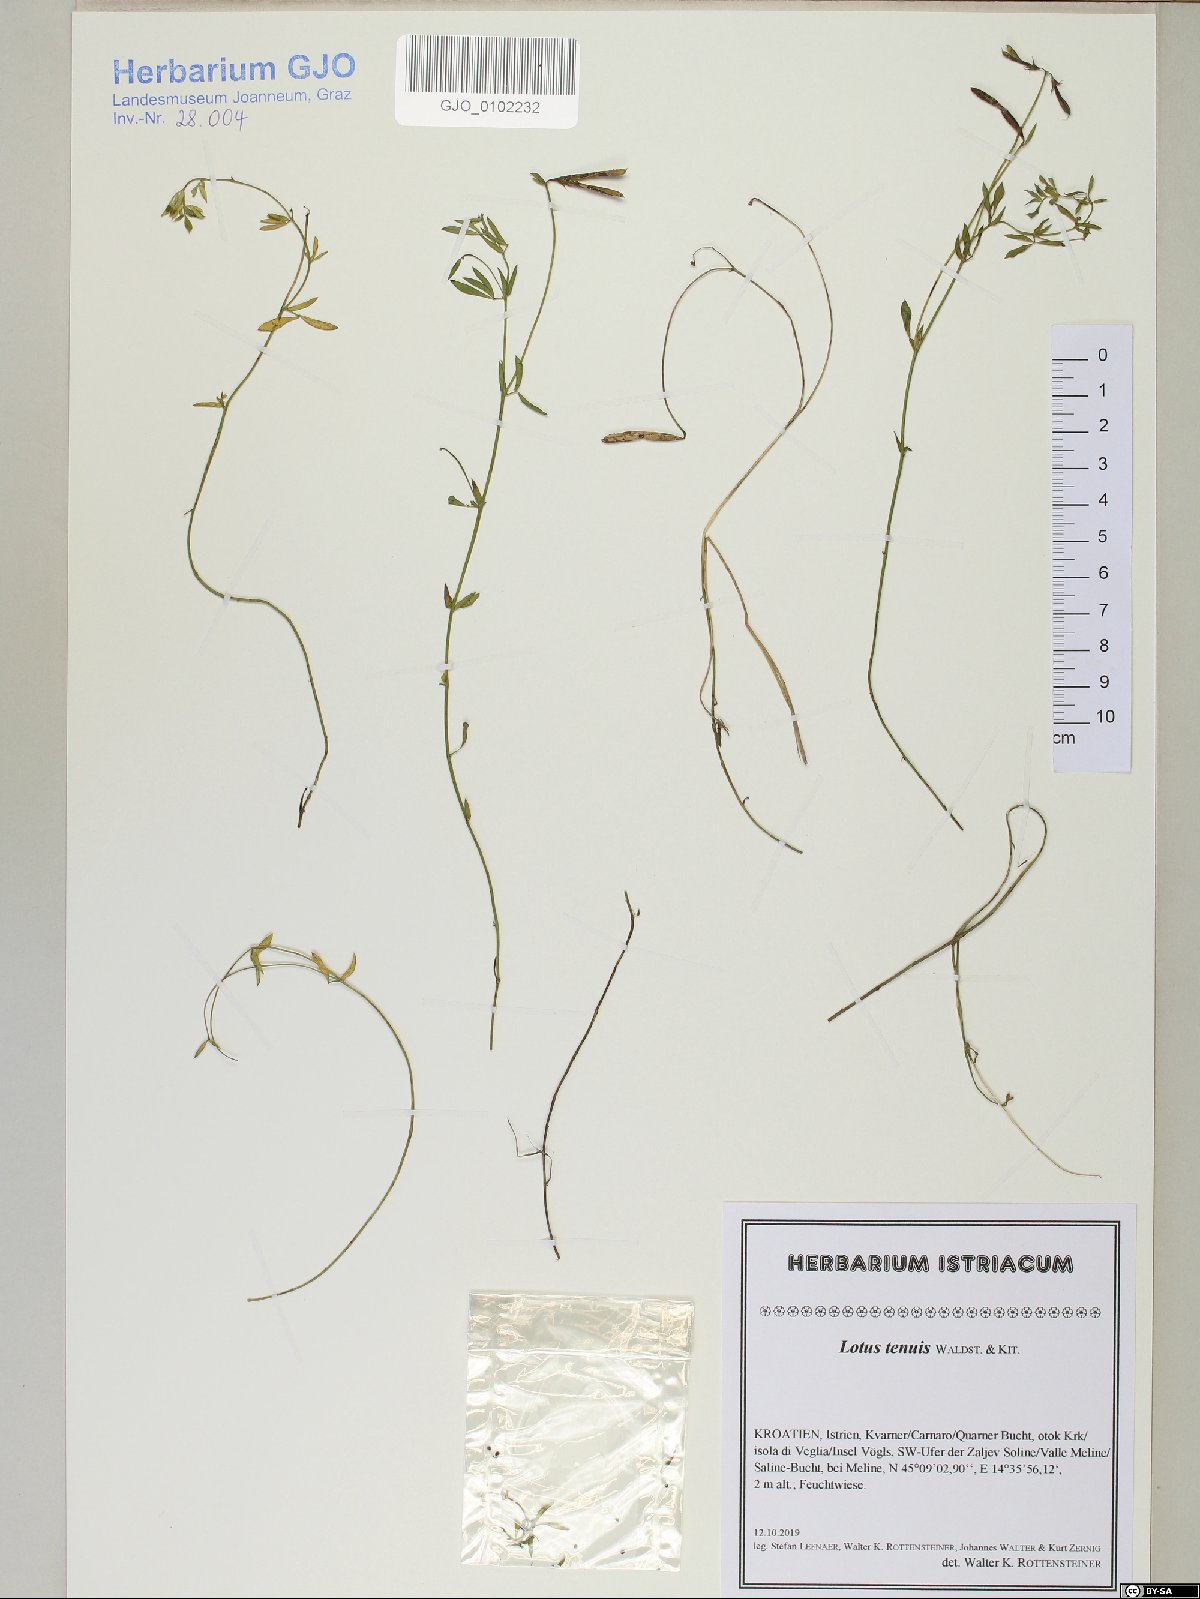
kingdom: Plantae
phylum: Tracheophyta
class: Magnoliopsida
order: Fabales
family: Fabaceae
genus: Lotus
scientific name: Lotus tenuis
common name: Narrow-leaved bird's-foot-trefoil
